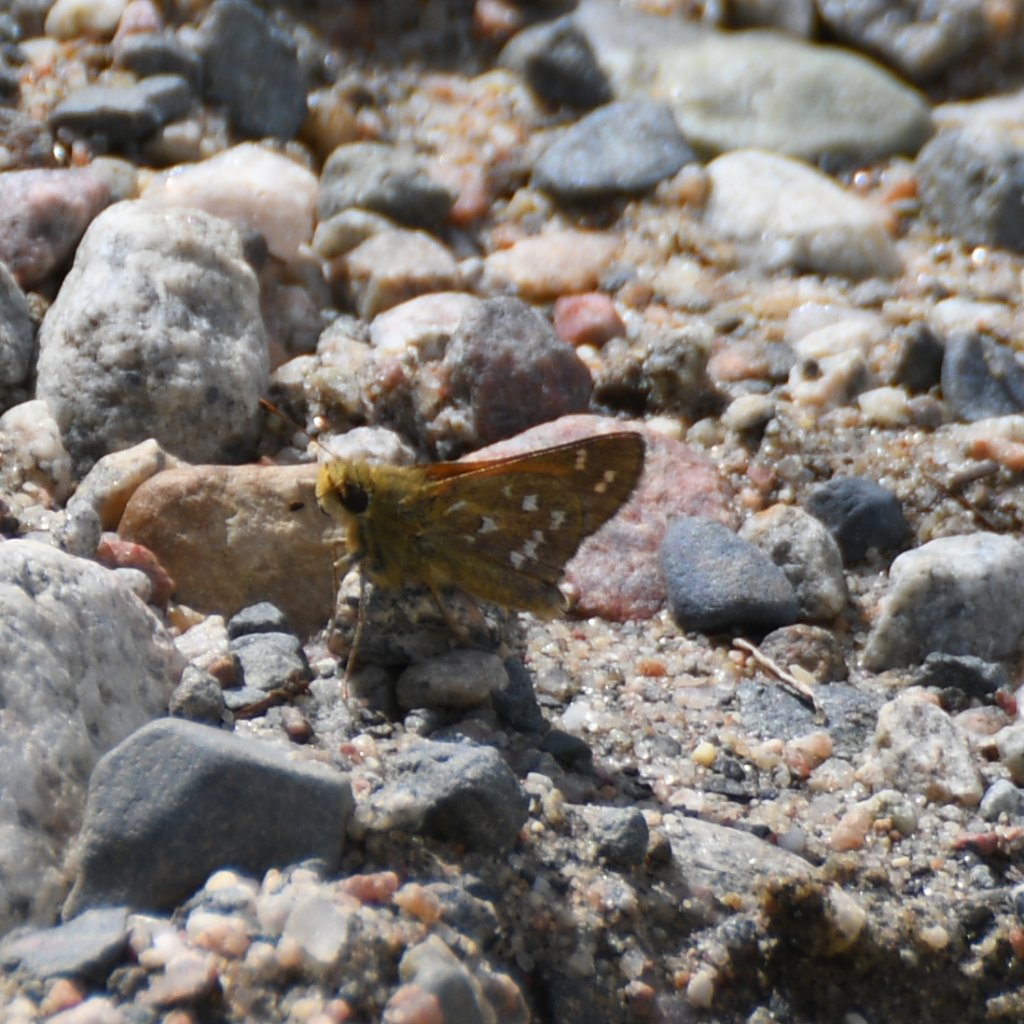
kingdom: Animalia
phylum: Arthropoda
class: Insecta
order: Lepidoptera
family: Hesperiidae
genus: Hesperia
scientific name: Hesperia comma
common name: Common Branded Skipper
